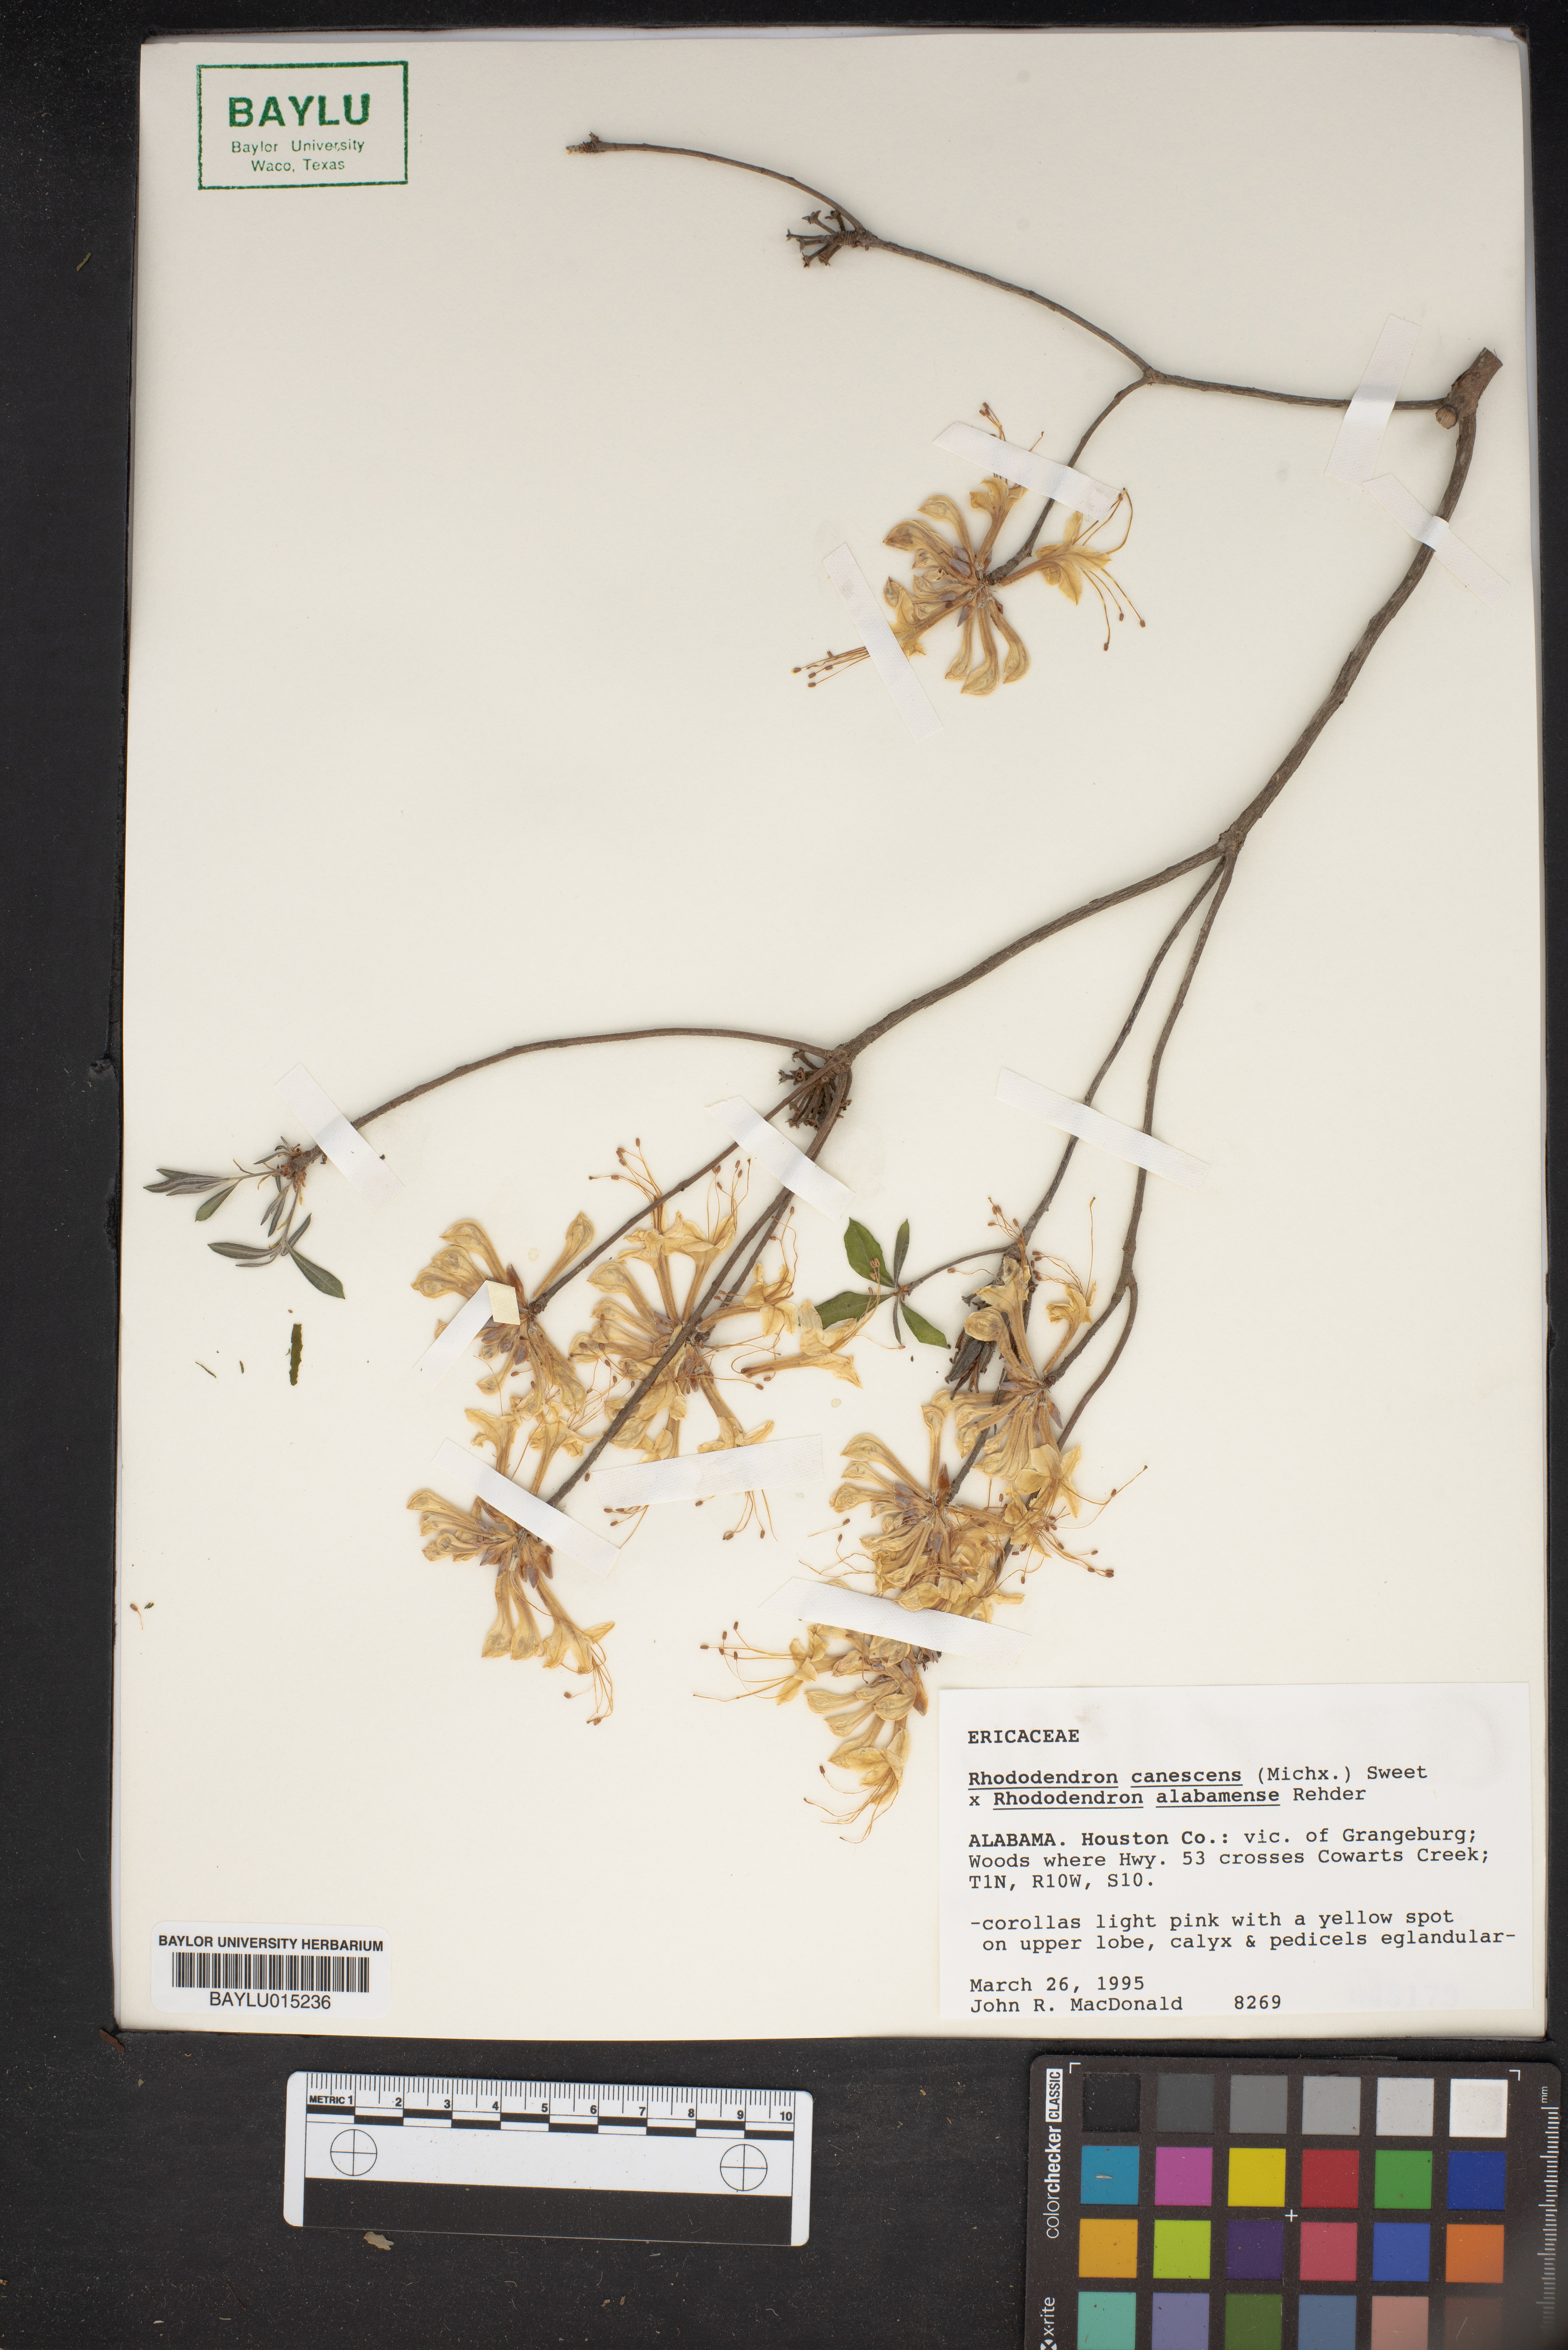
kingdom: Plantae
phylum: Tracheophyta
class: Magnoliopsida
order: Ericales
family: Ericaceae
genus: Rhododendron
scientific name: Rhododendron canescens
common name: Mountain azalea
